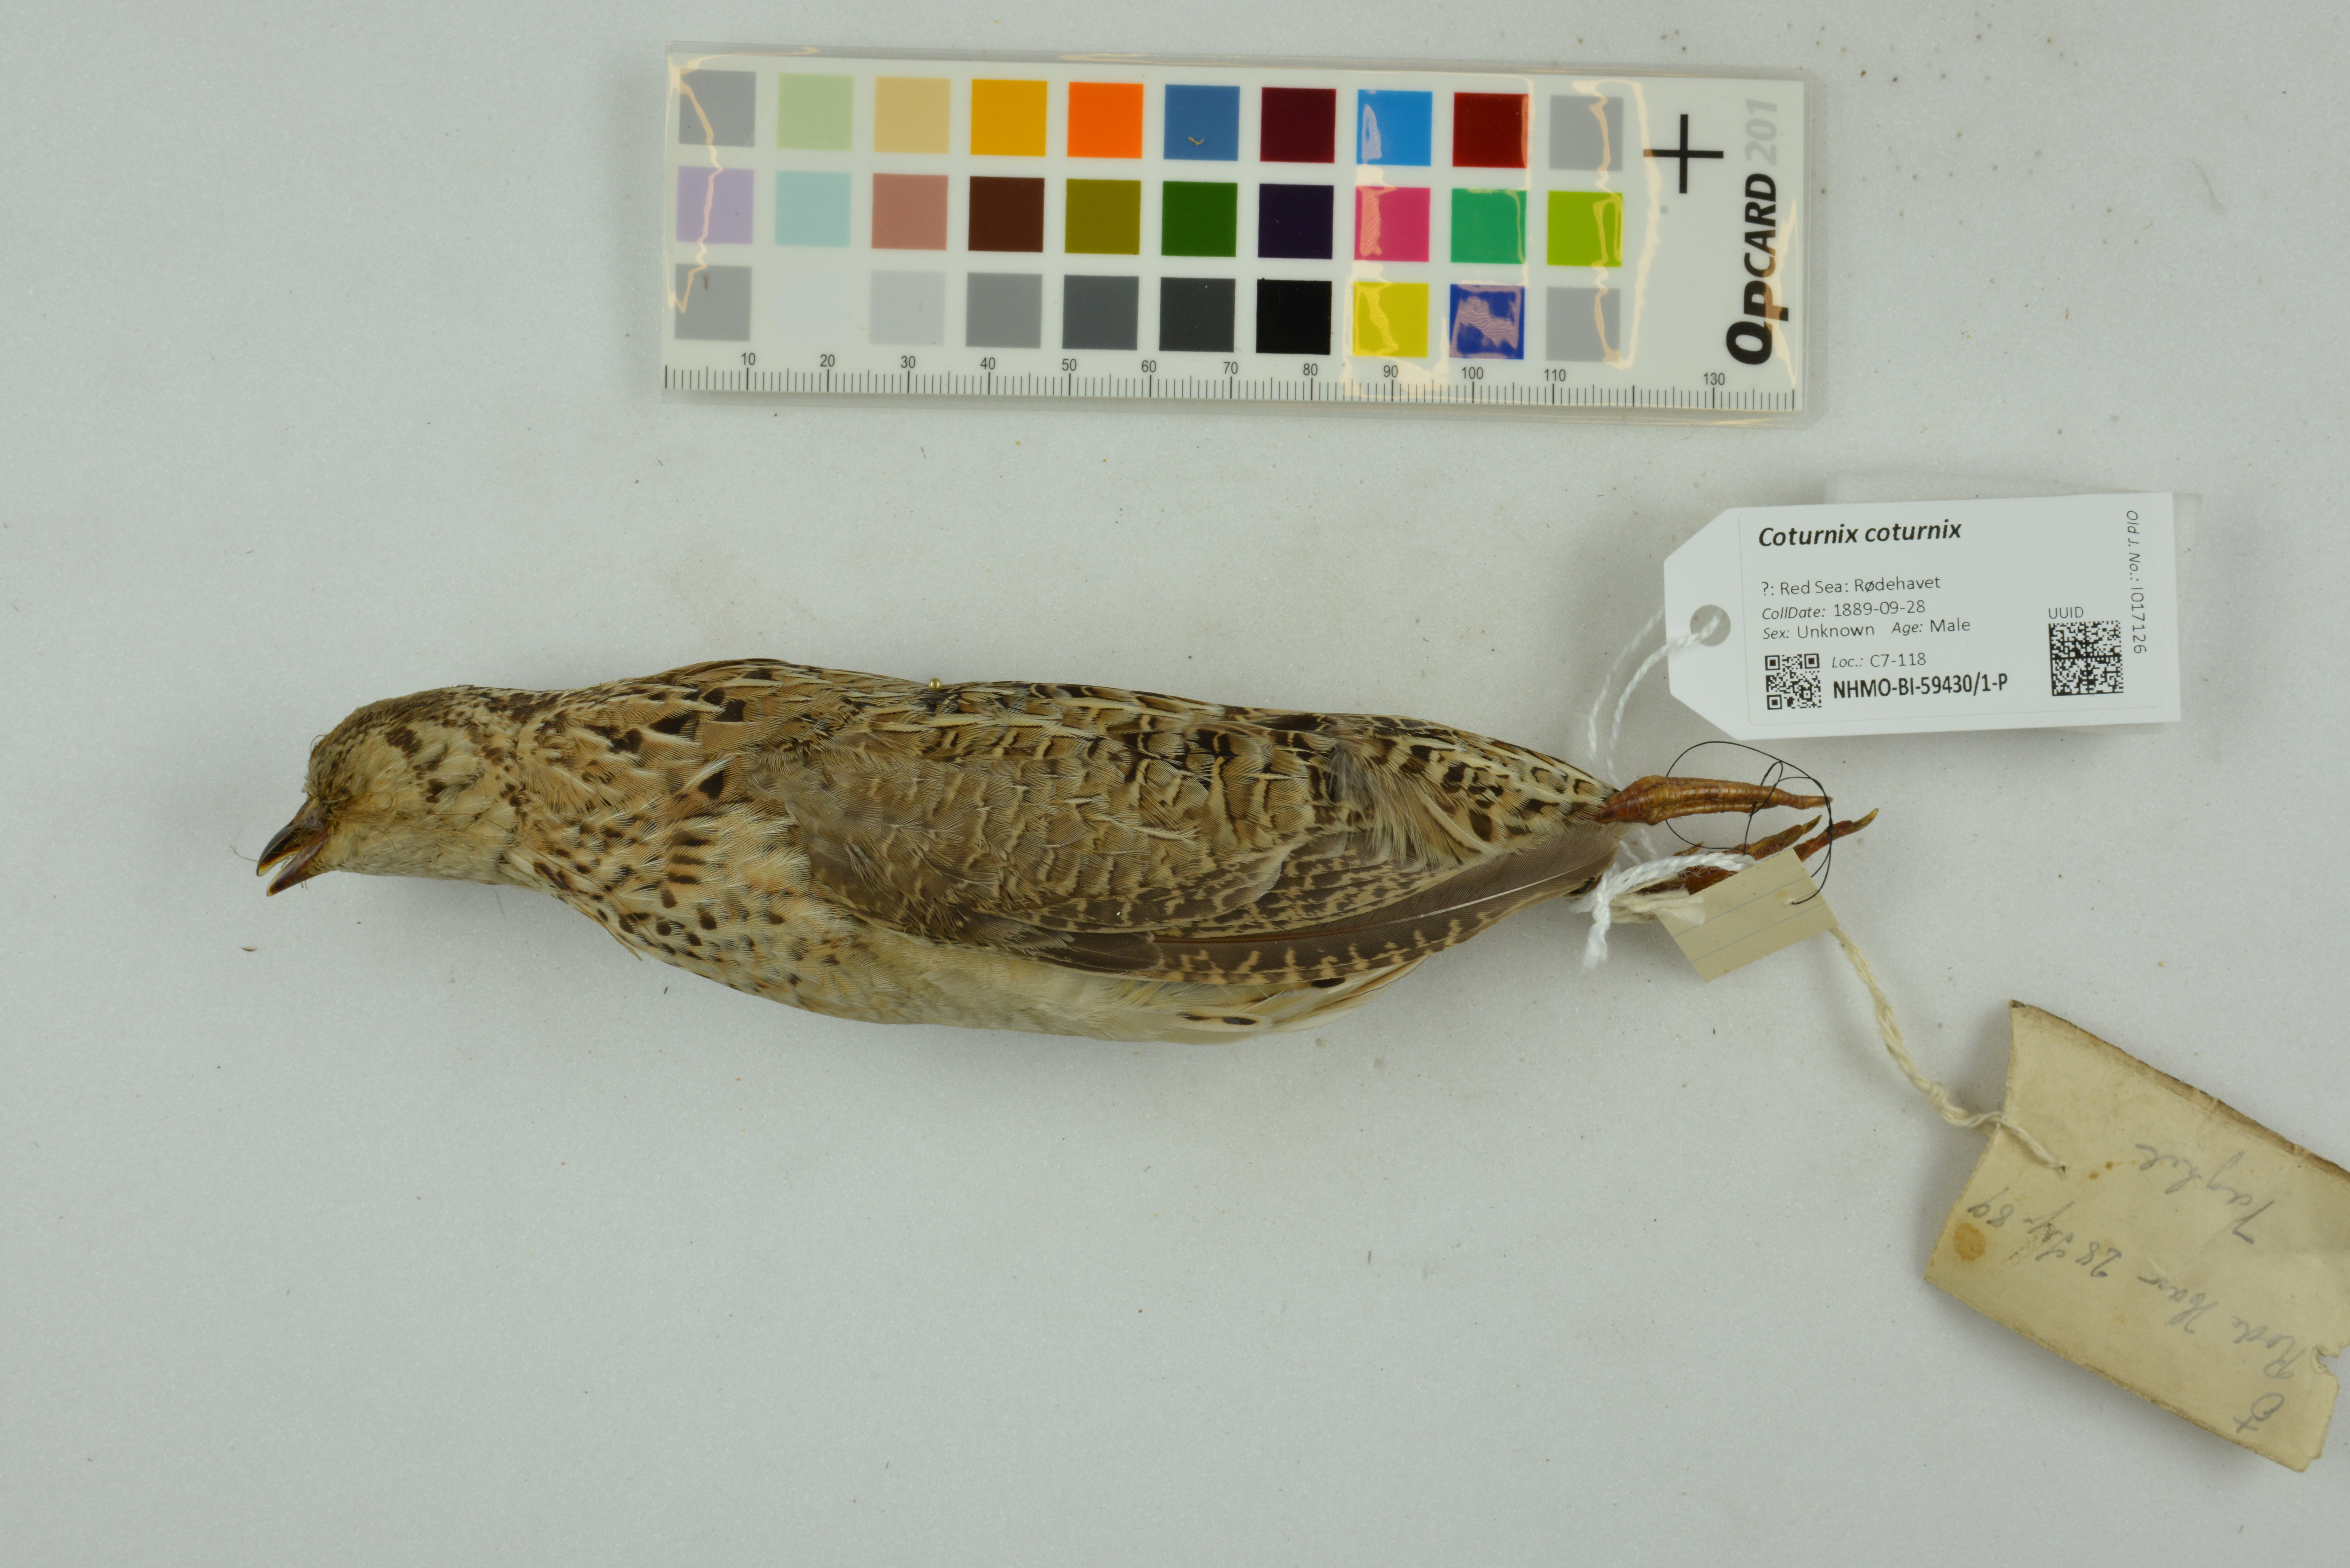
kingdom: Animalia
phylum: Chordata
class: Aves
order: Galliformes
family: Phasianidae
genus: Coturnix
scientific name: Coturnix coturnix
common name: Common quail
